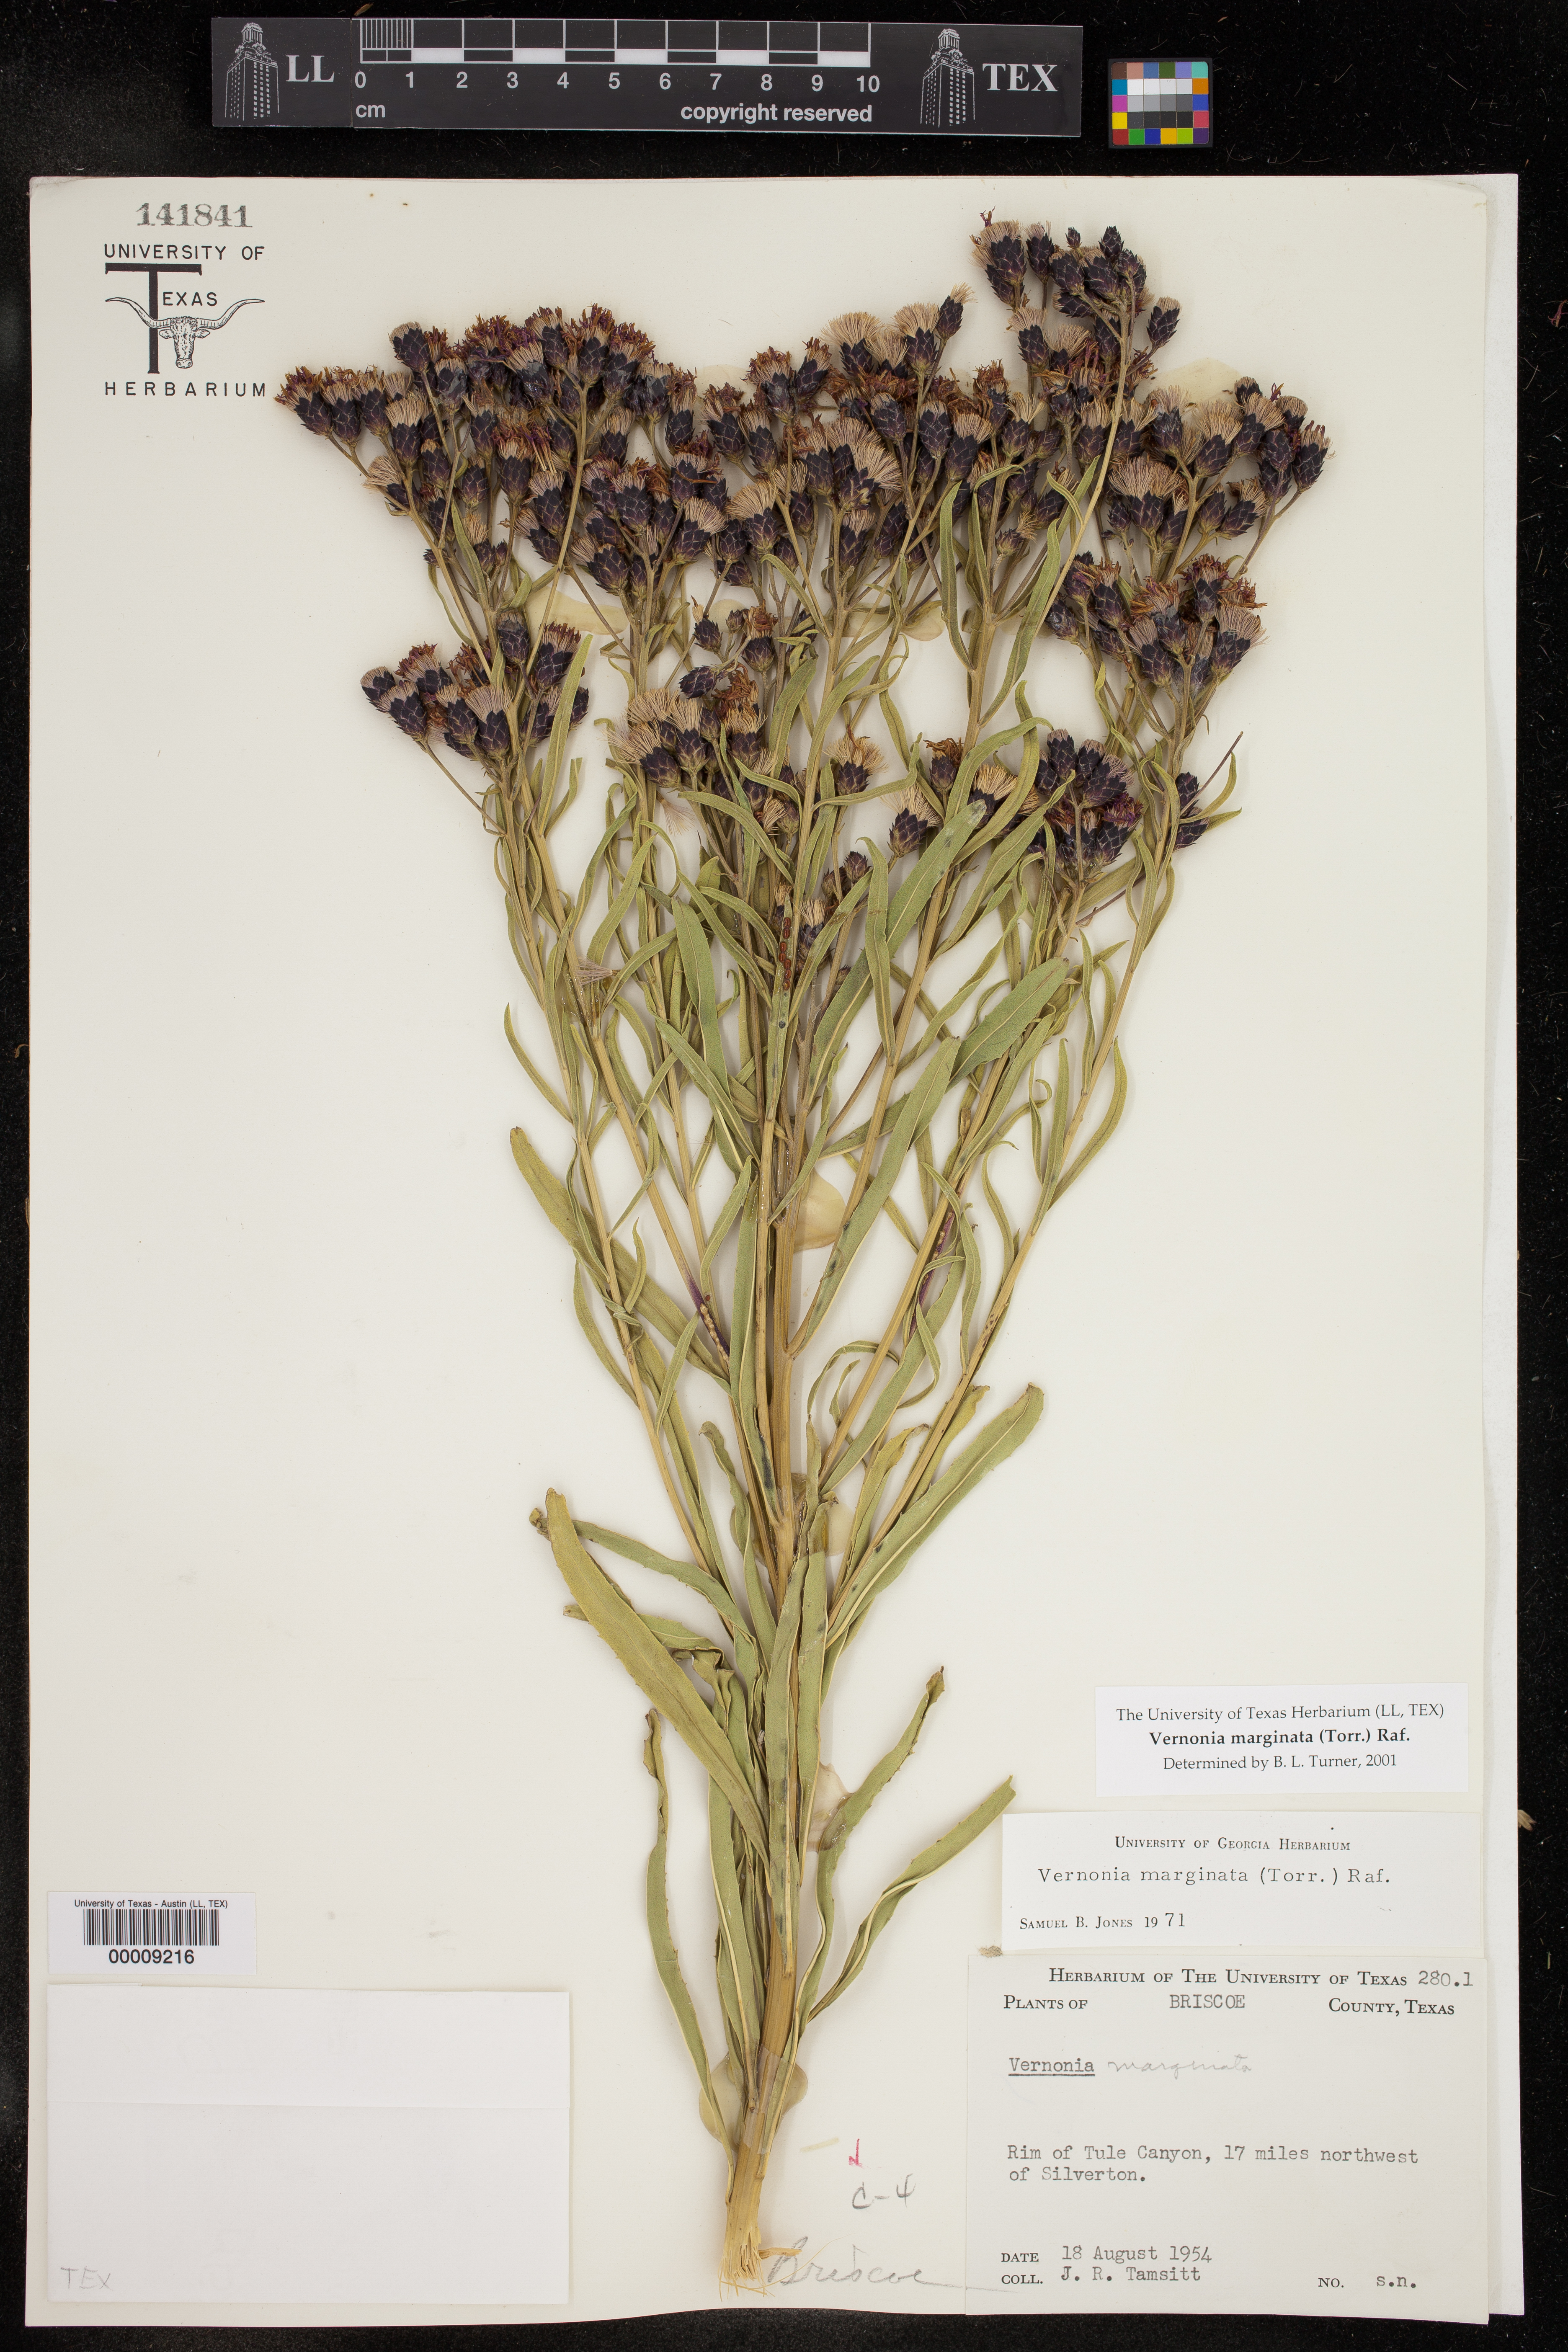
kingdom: Plantae
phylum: Tracheophyta
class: Magnoliopsida
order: Asterales
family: Asteraceae
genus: Vernonia
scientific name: Vernonia marginata
